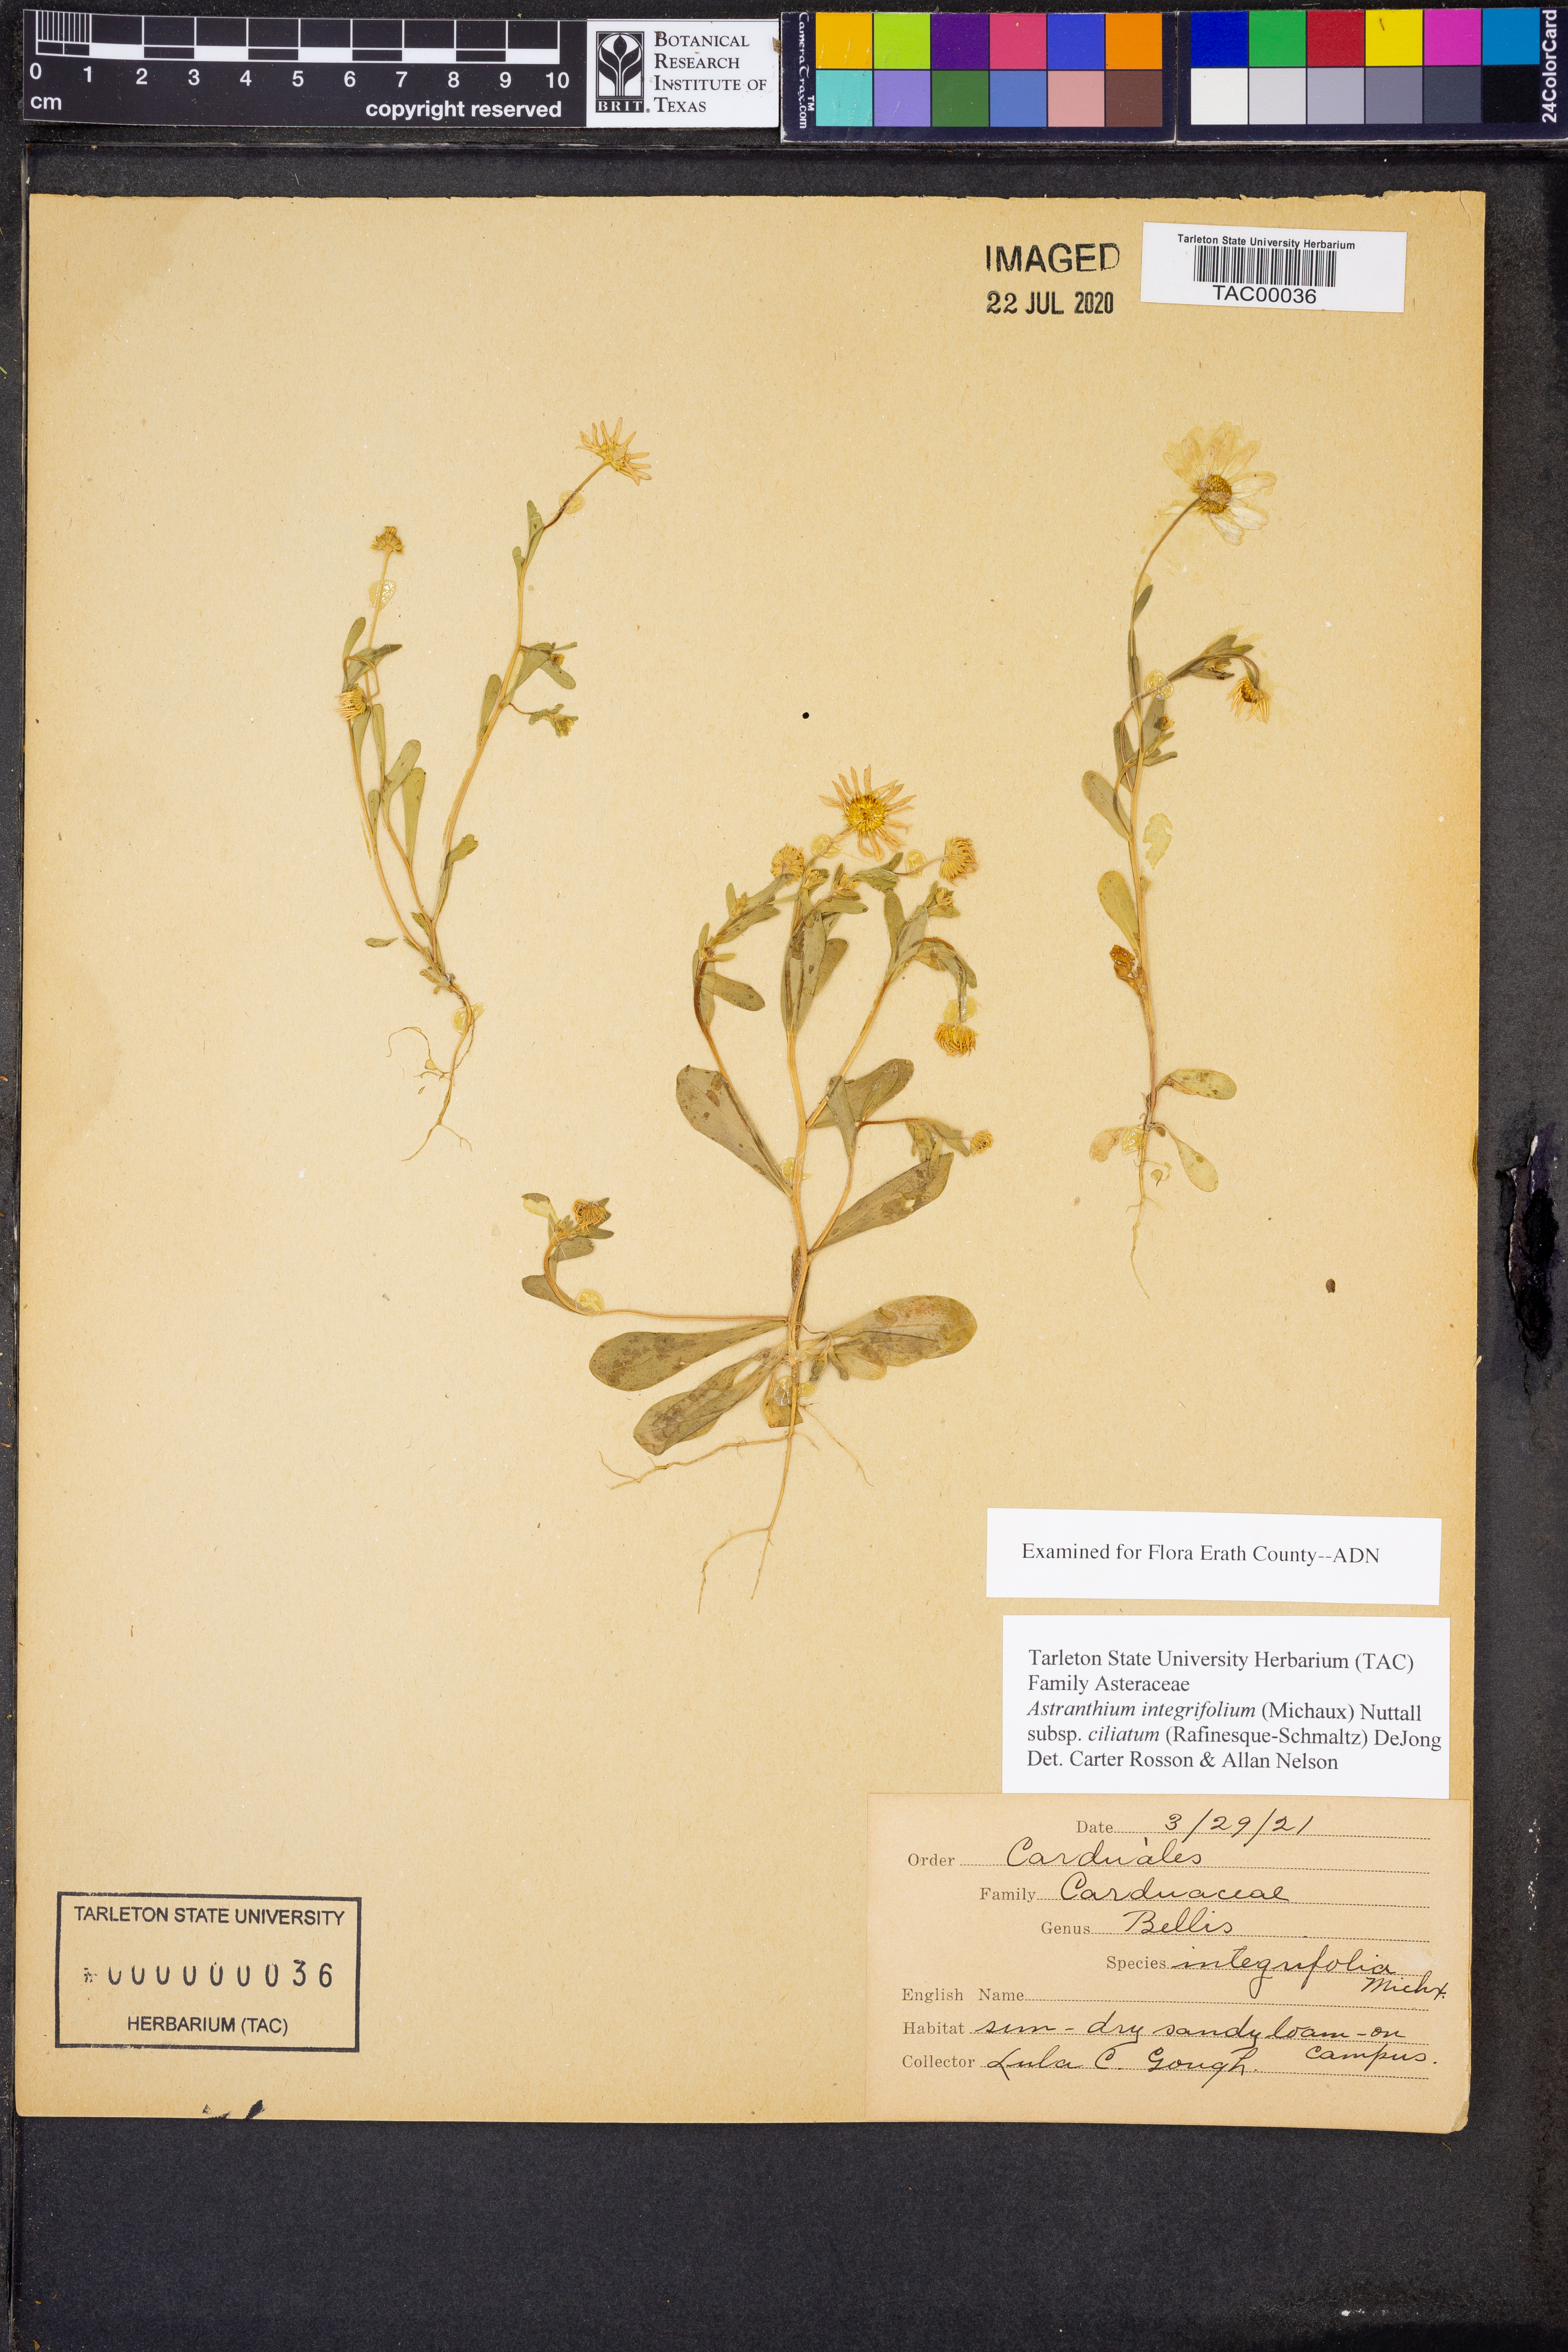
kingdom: Plantae
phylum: Tracheophyta
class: Magnoliopsida
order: Asterales
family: Asteraceae
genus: Astranthium
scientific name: Astranthium ciliatum
